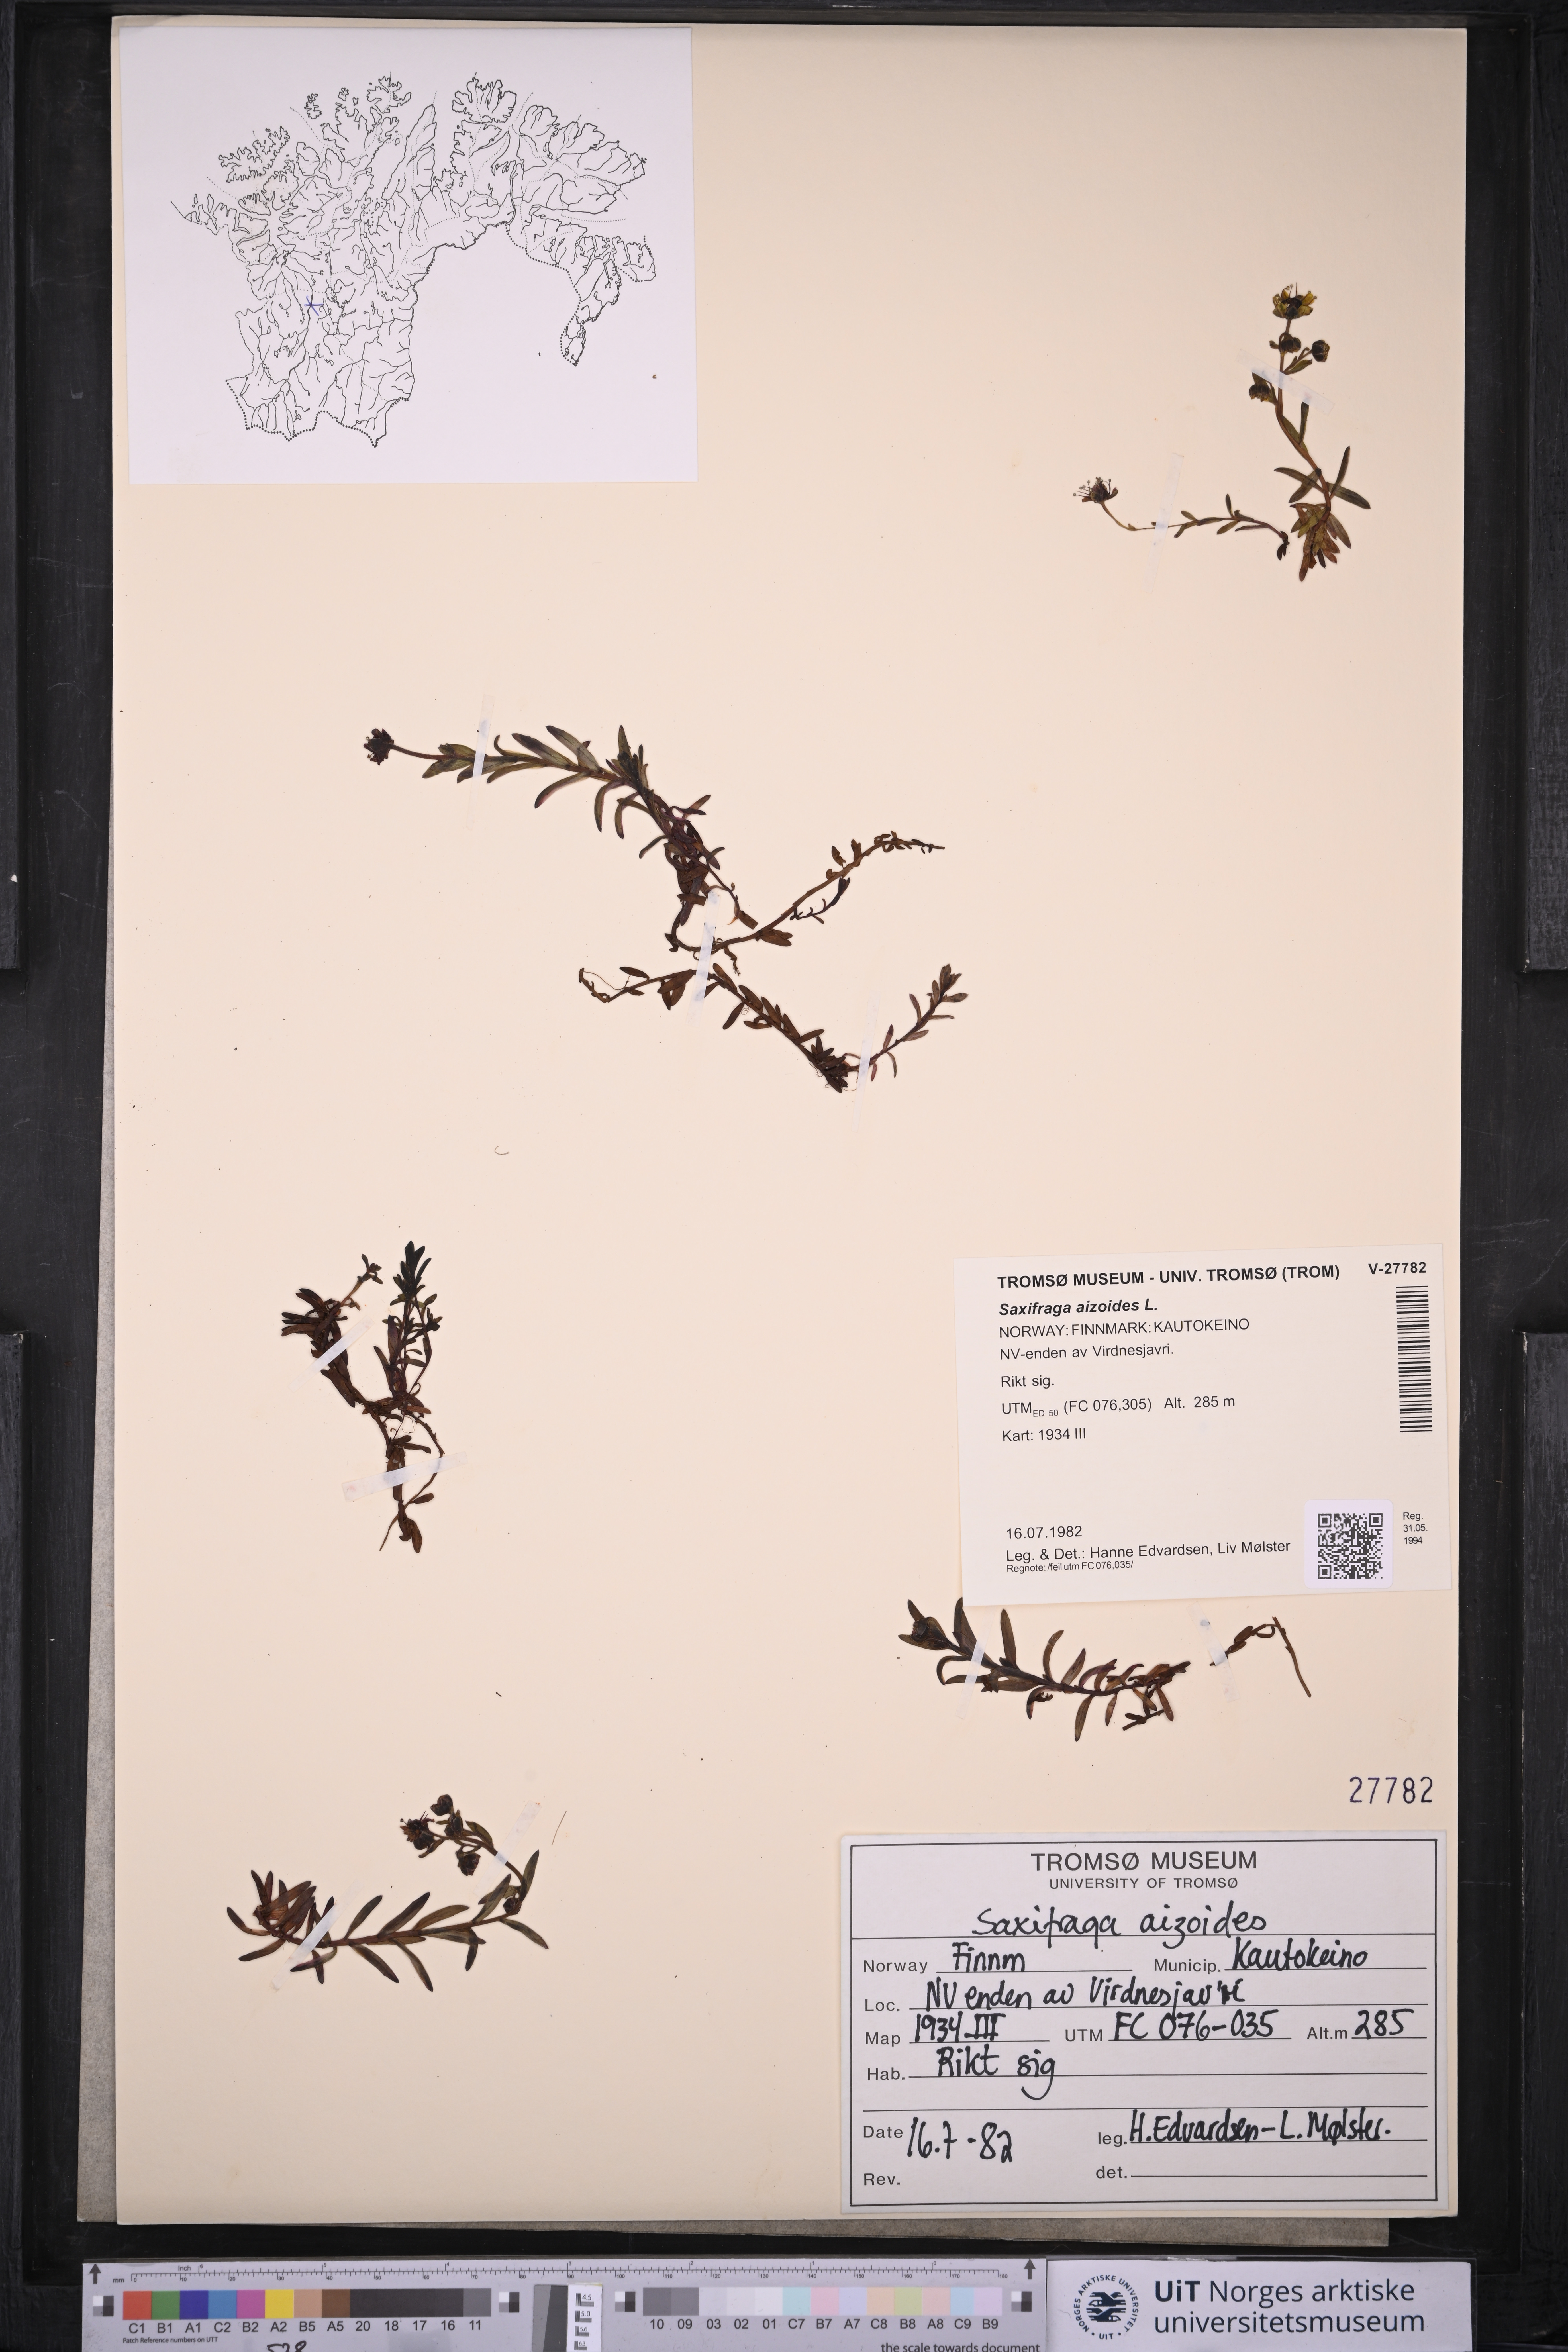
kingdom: Plantae
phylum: Tracheophyta
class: Magnoliopsida
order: Saxifragales
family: Saxifragaceae
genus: Saxifraga
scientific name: Saxifraga aizoides
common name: Yellow mountain saxifrage
